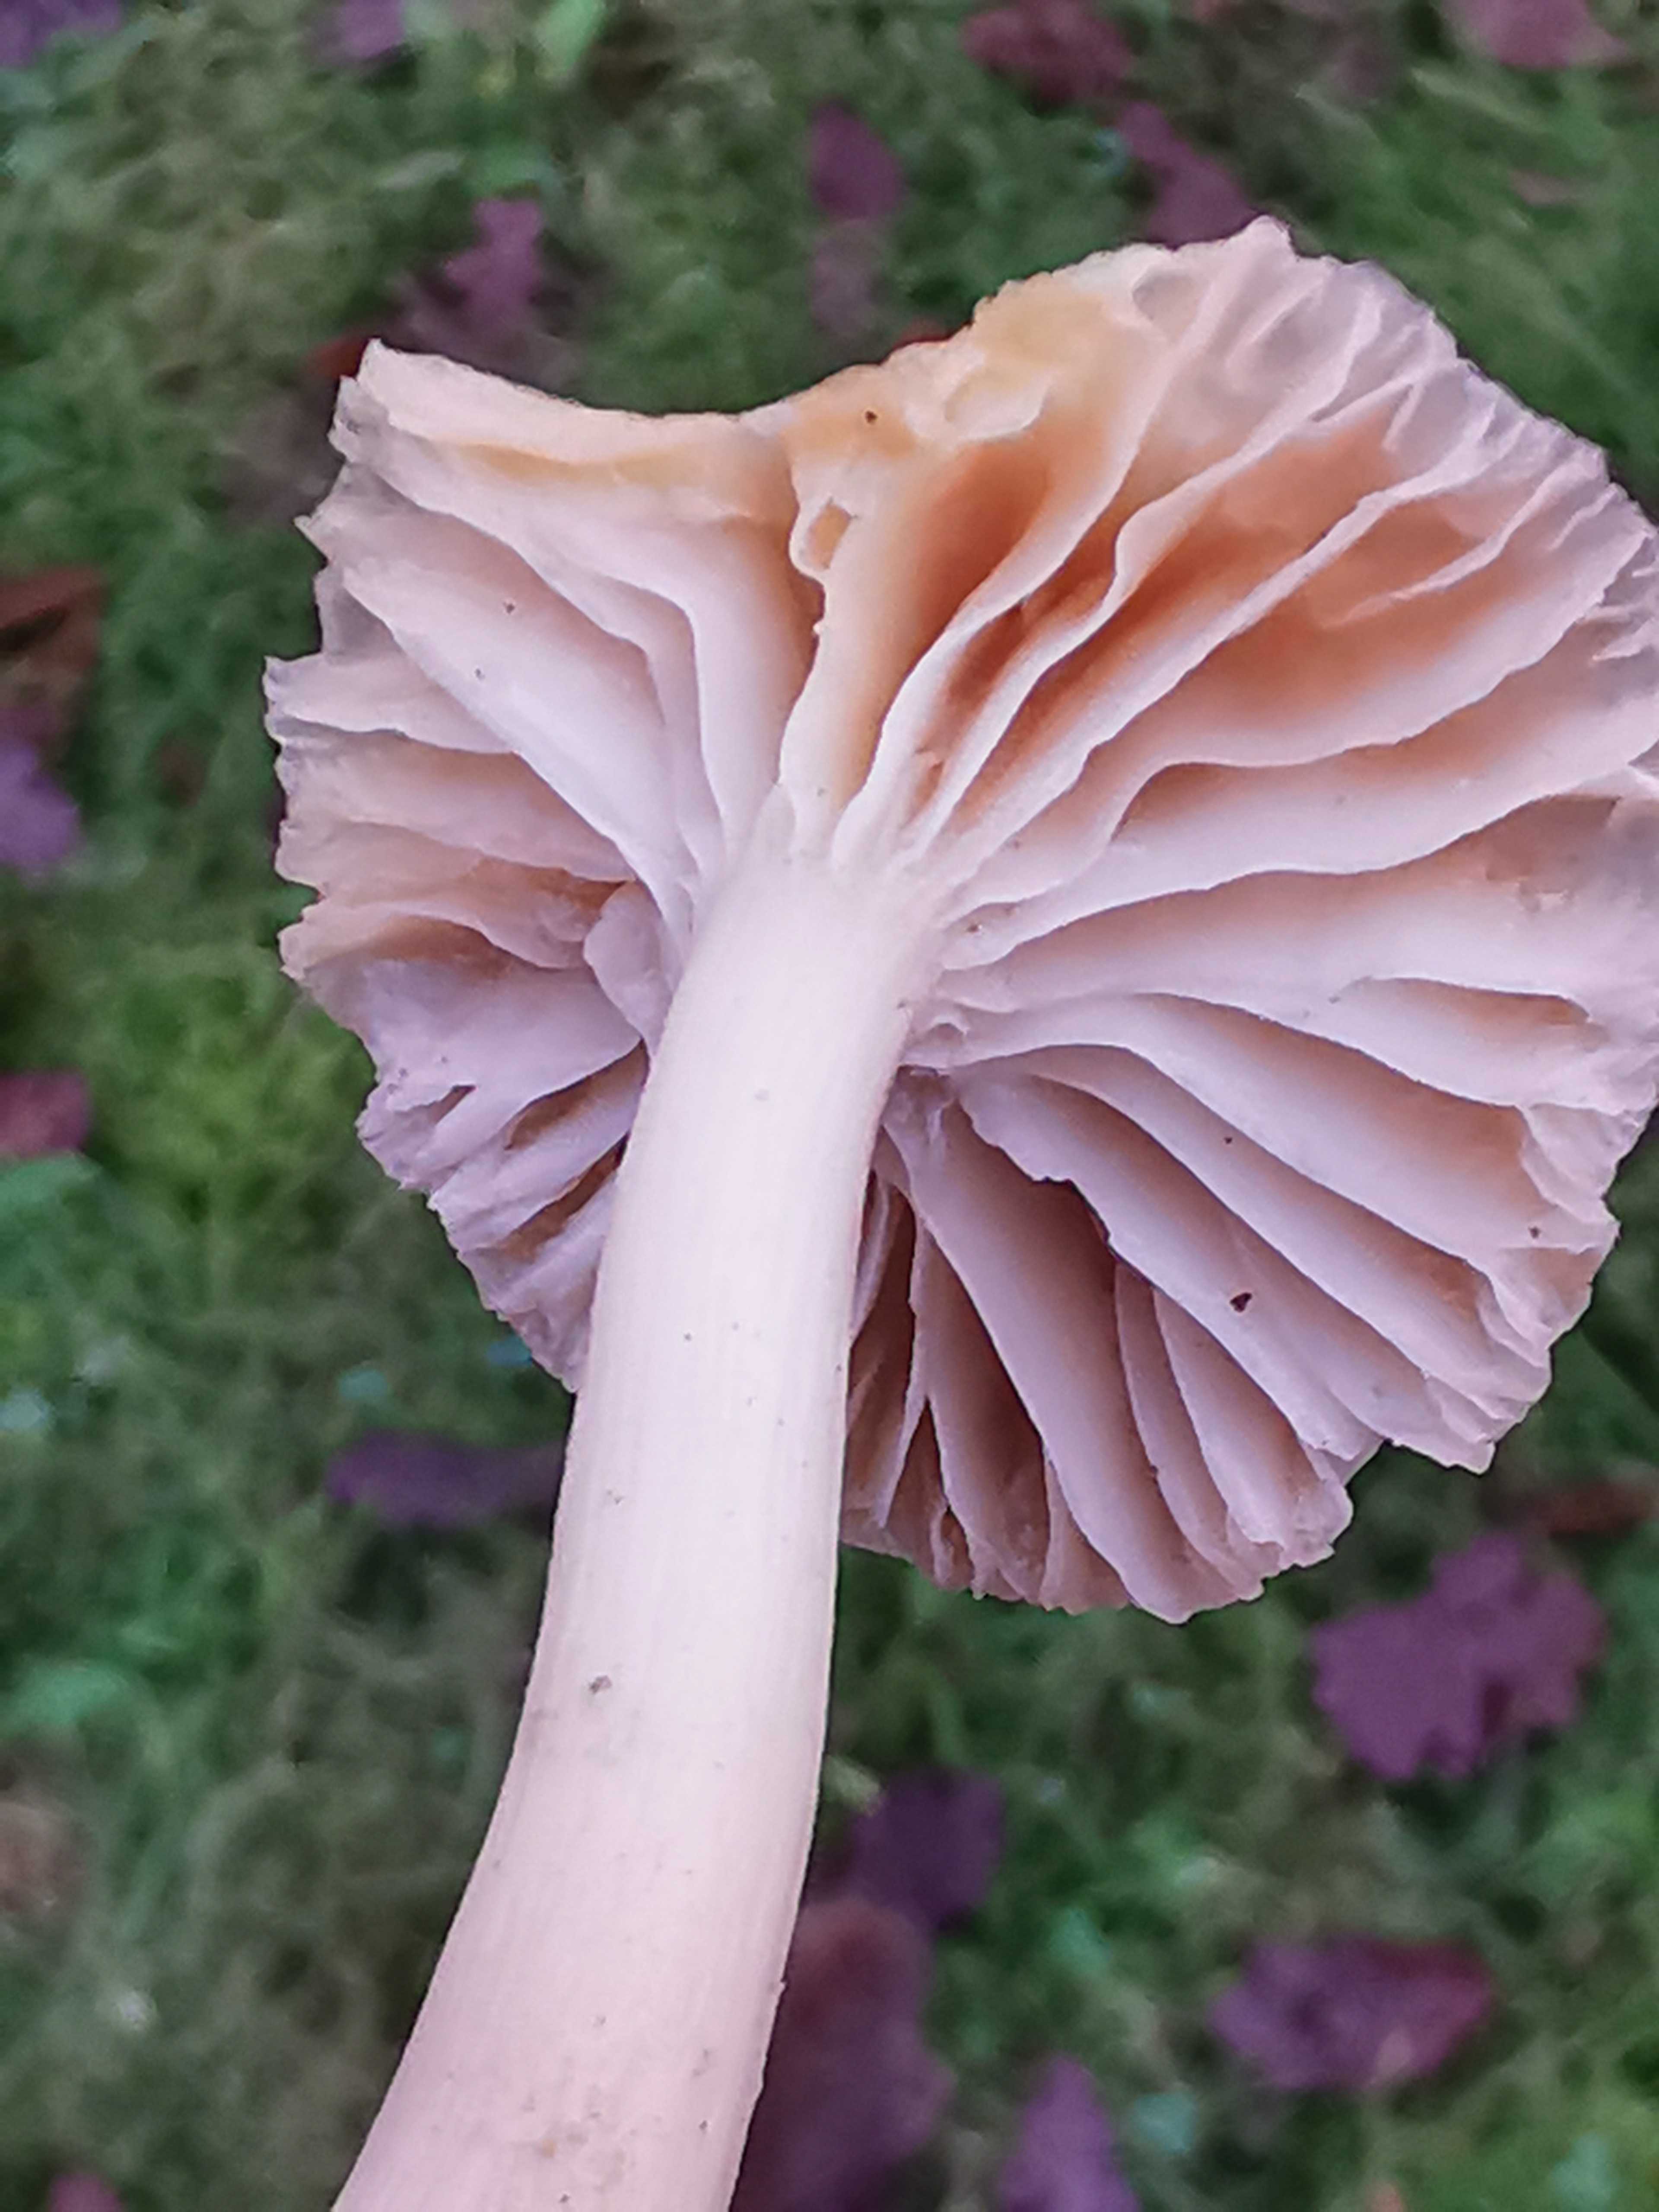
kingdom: Fungi
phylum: Basidiomycota
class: Agaricomycetes
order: Agaricales
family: Hygrophoraceae
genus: Cuphophyllus
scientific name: Cuphophyllus
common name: vokshat
